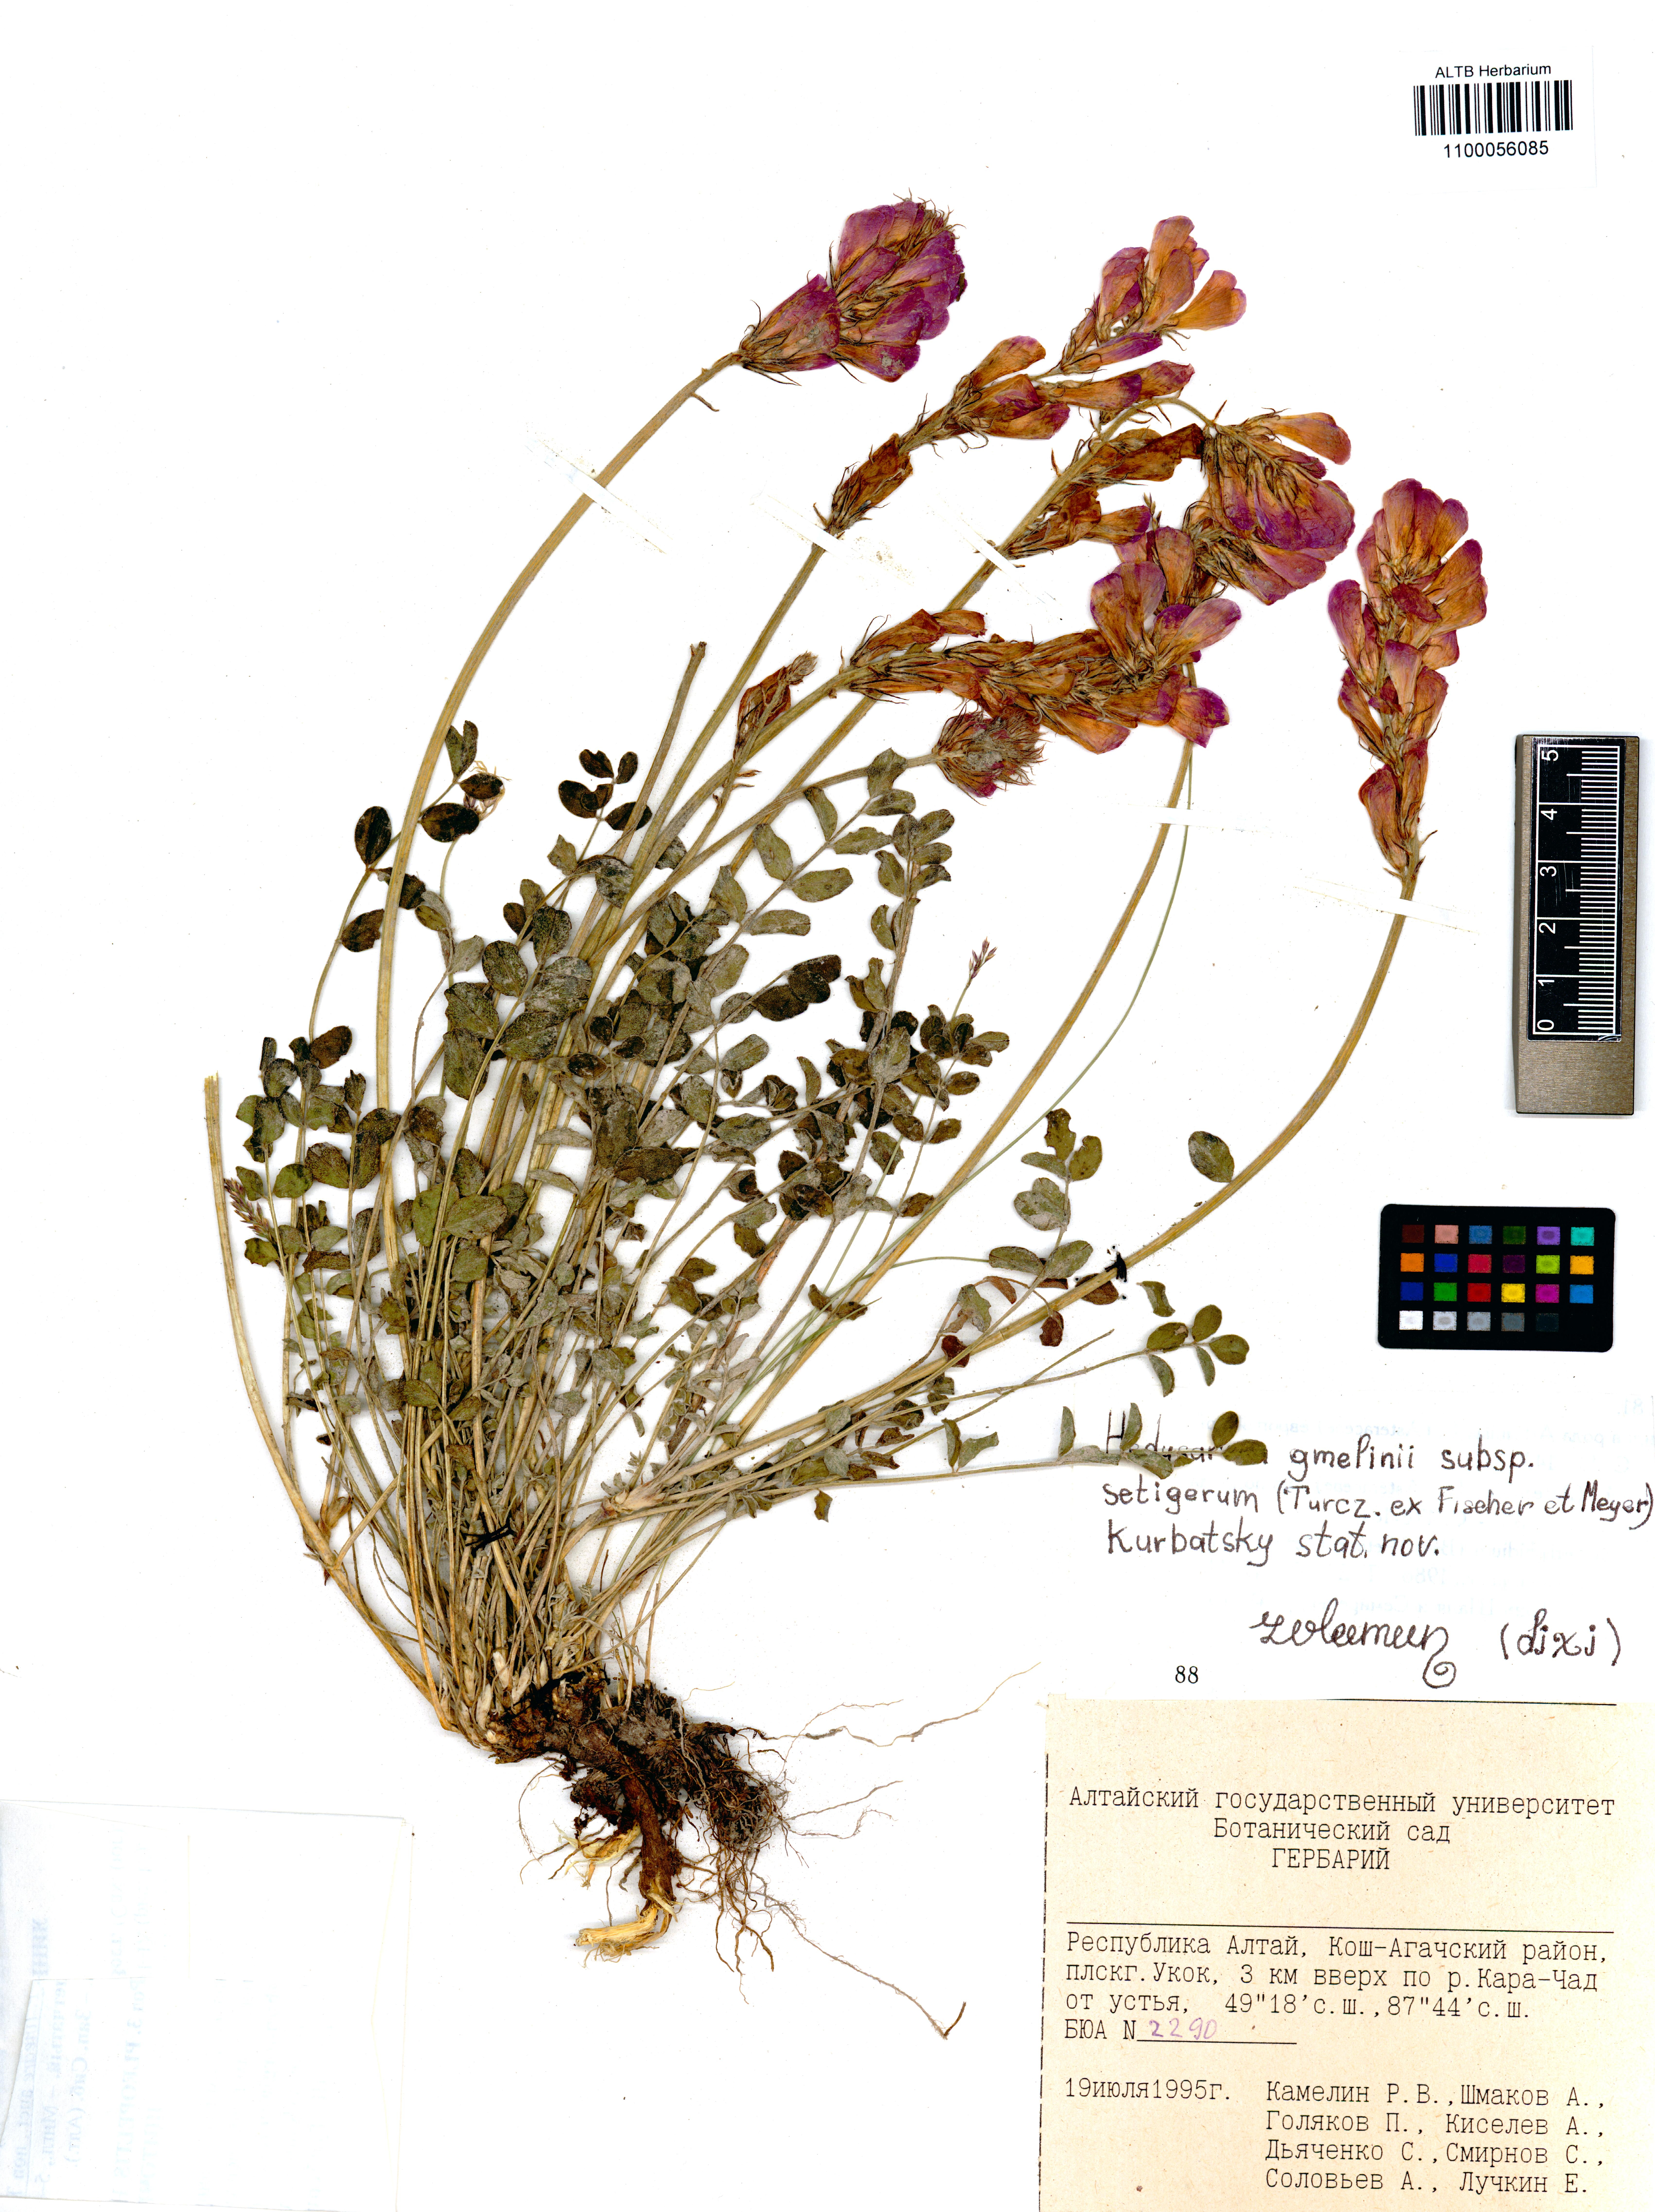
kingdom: Plantae
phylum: Tracheophyta
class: Magnoliopsida
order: Fabales
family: Fabaceae
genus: Hedysarum
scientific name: Hedysarum setigerum
